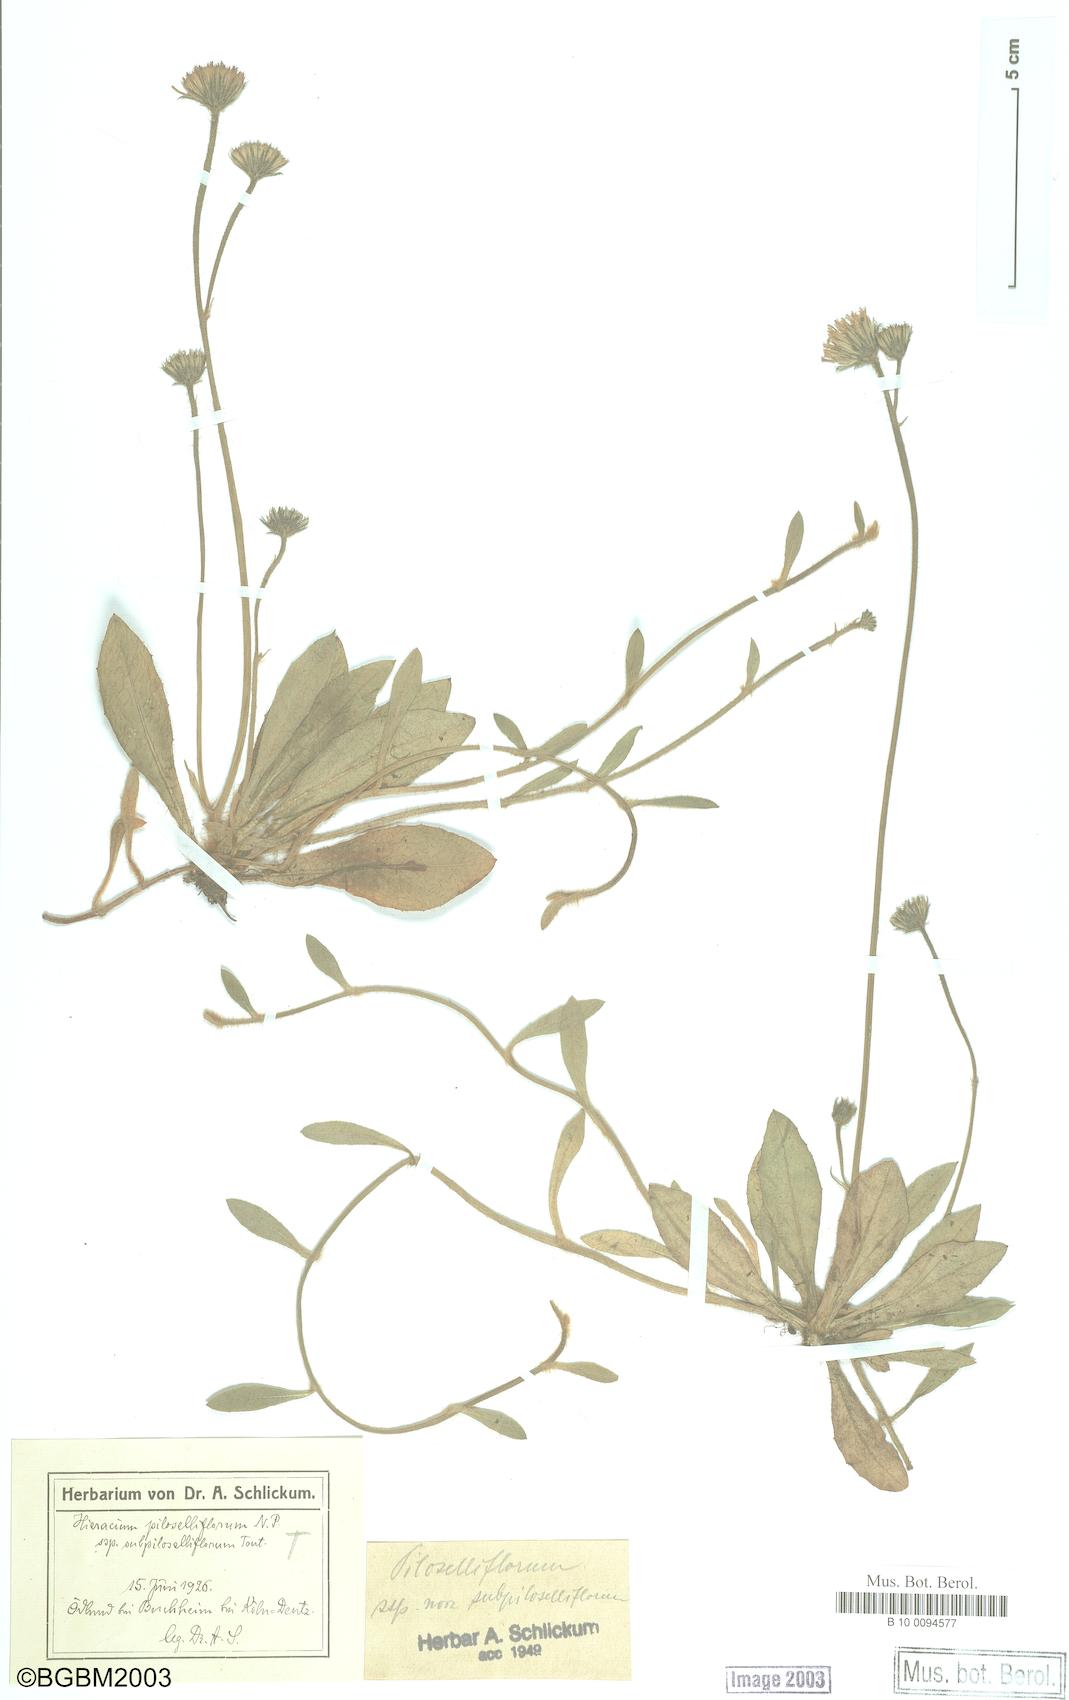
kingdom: Plantae
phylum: Tracheophyta
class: Magnoliopsida
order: Asterales
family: Asteraceae
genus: Pilosella
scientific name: Pilosella piloselliflora
